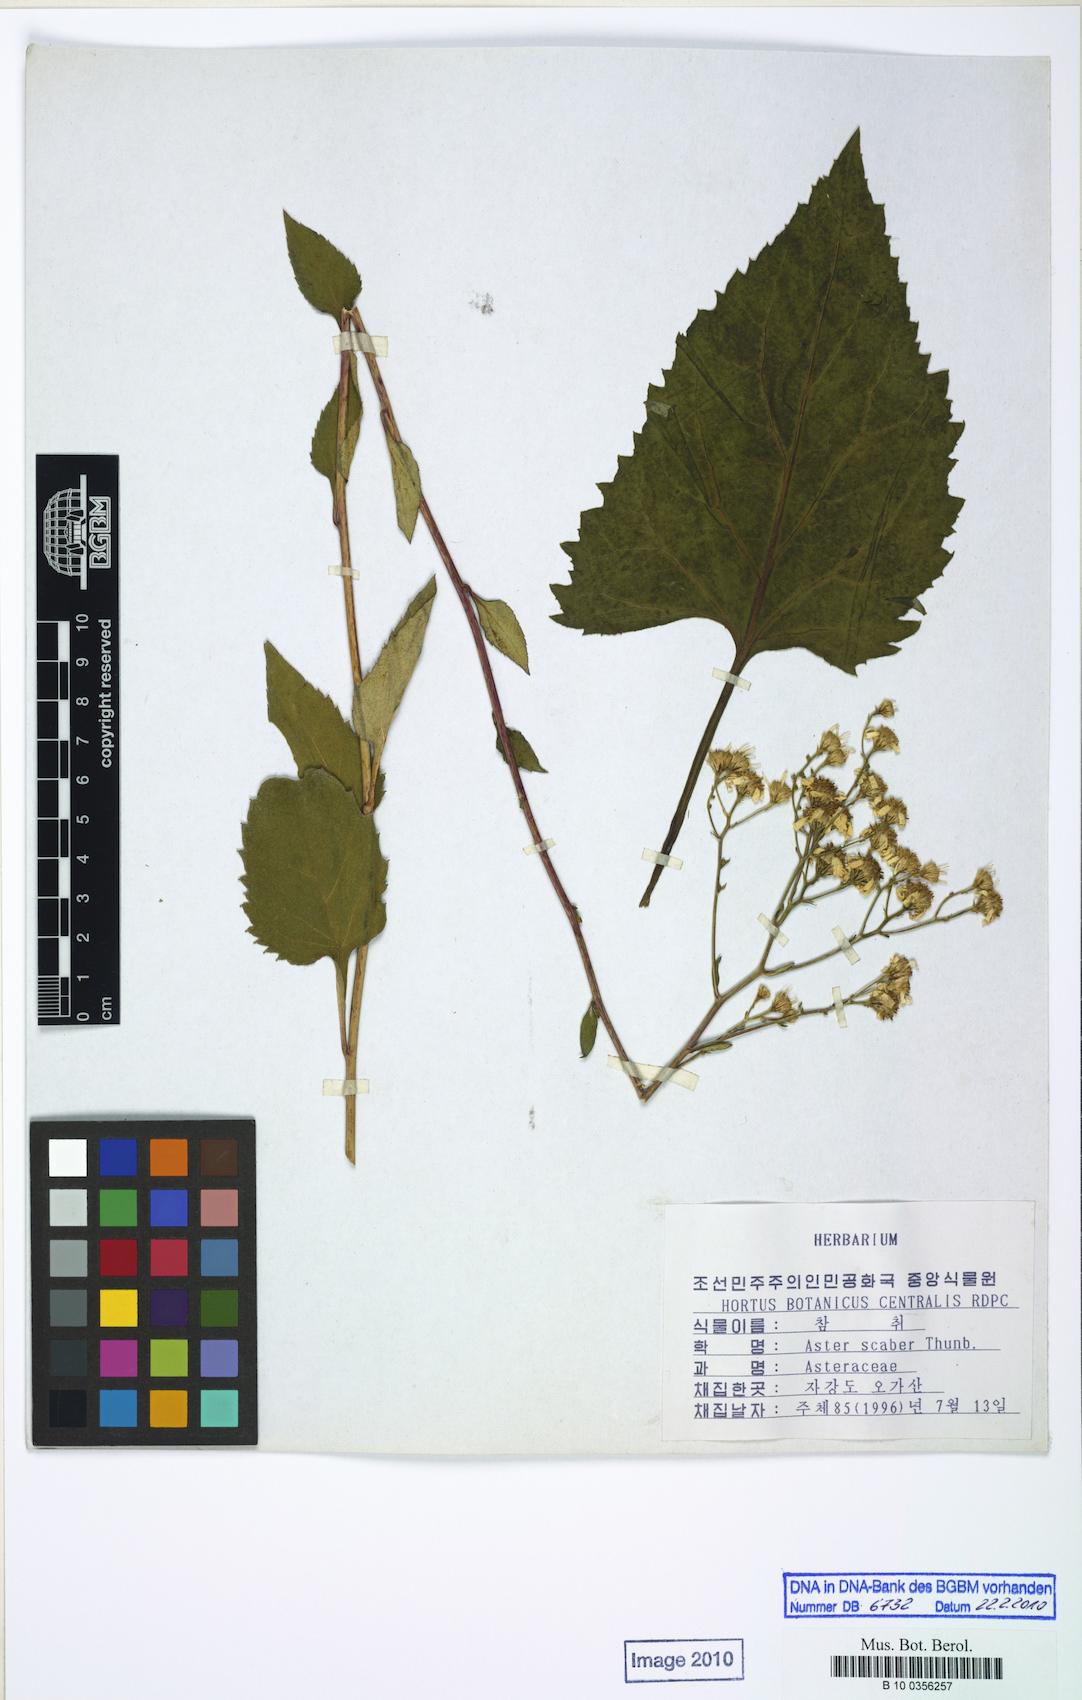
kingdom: Plantae
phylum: Tracheophyta
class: Magnoliopsida
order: Asterales
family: Asteraceae
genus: Cardiagyris
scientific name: Cardiagyris scabra
